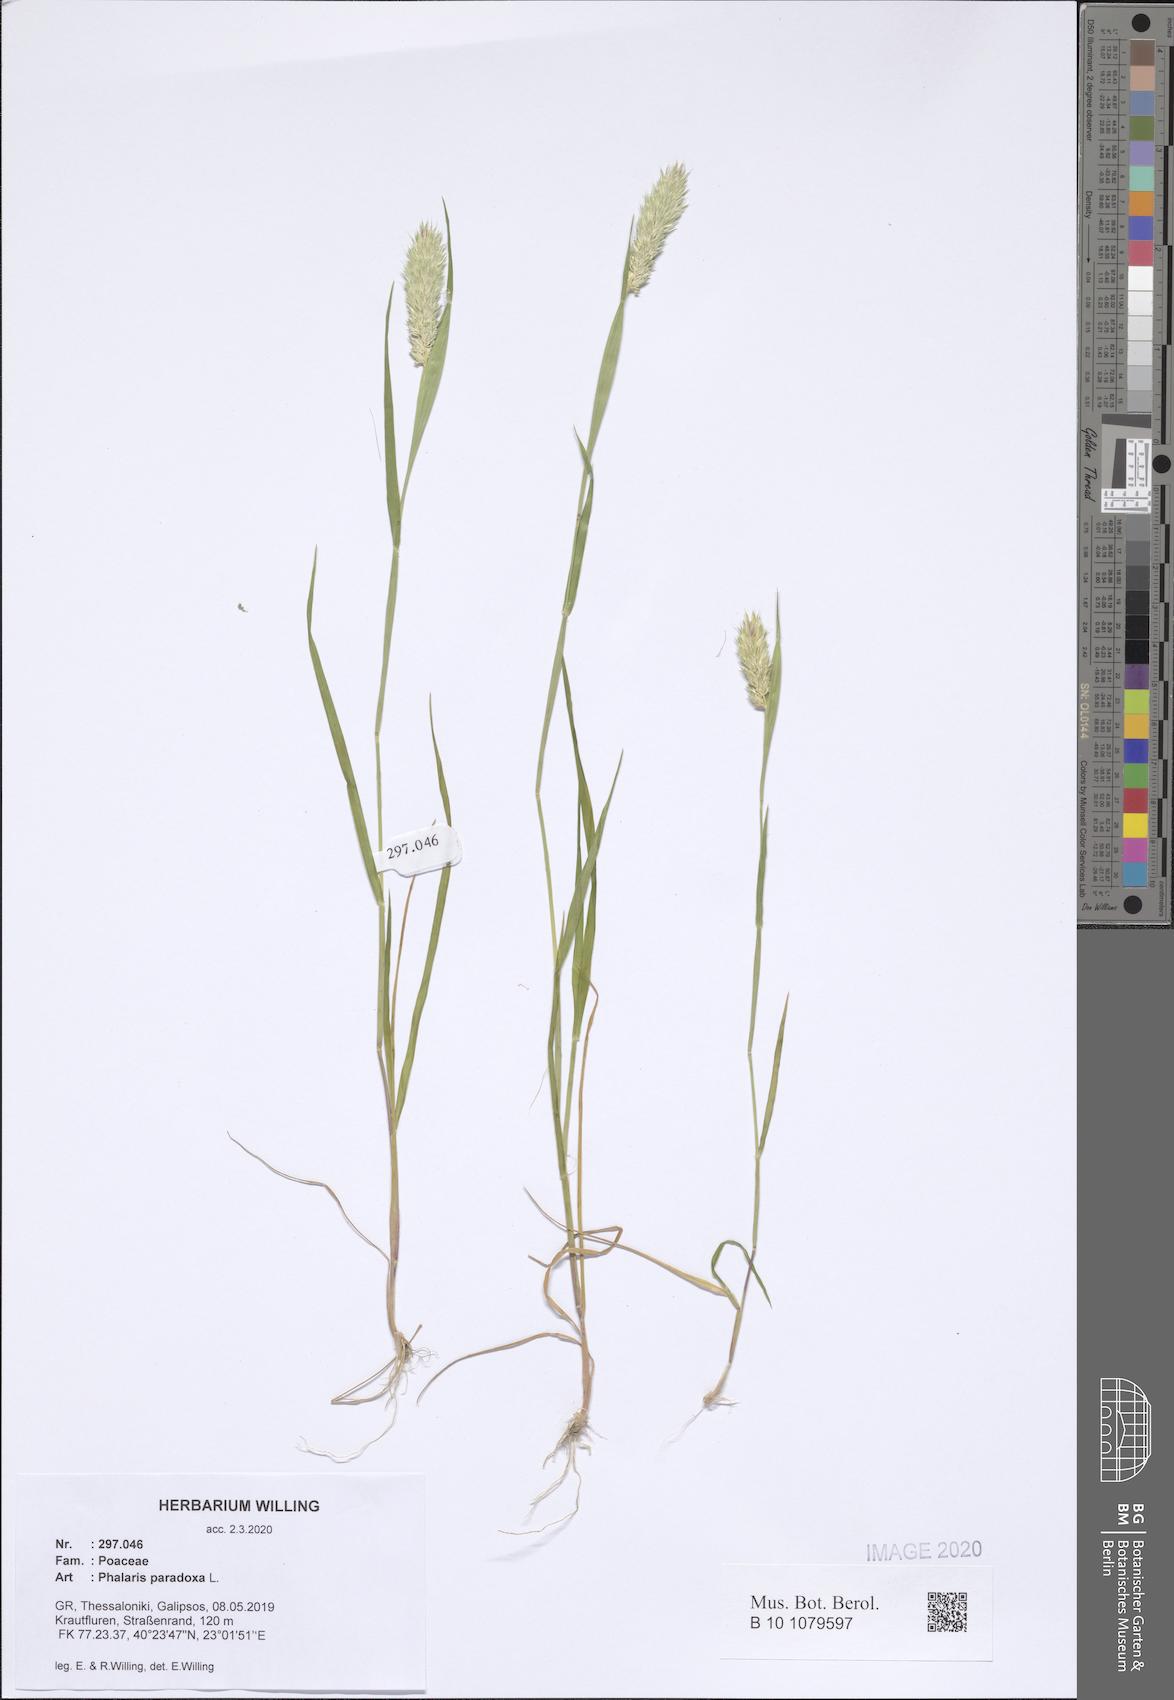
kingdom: Plantae
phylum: Tracheophyta
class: Liliopsida
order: Poales
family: Poaceae
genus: Phalaris
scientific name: Phalaris paradoxa
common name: Awned canary-grass
